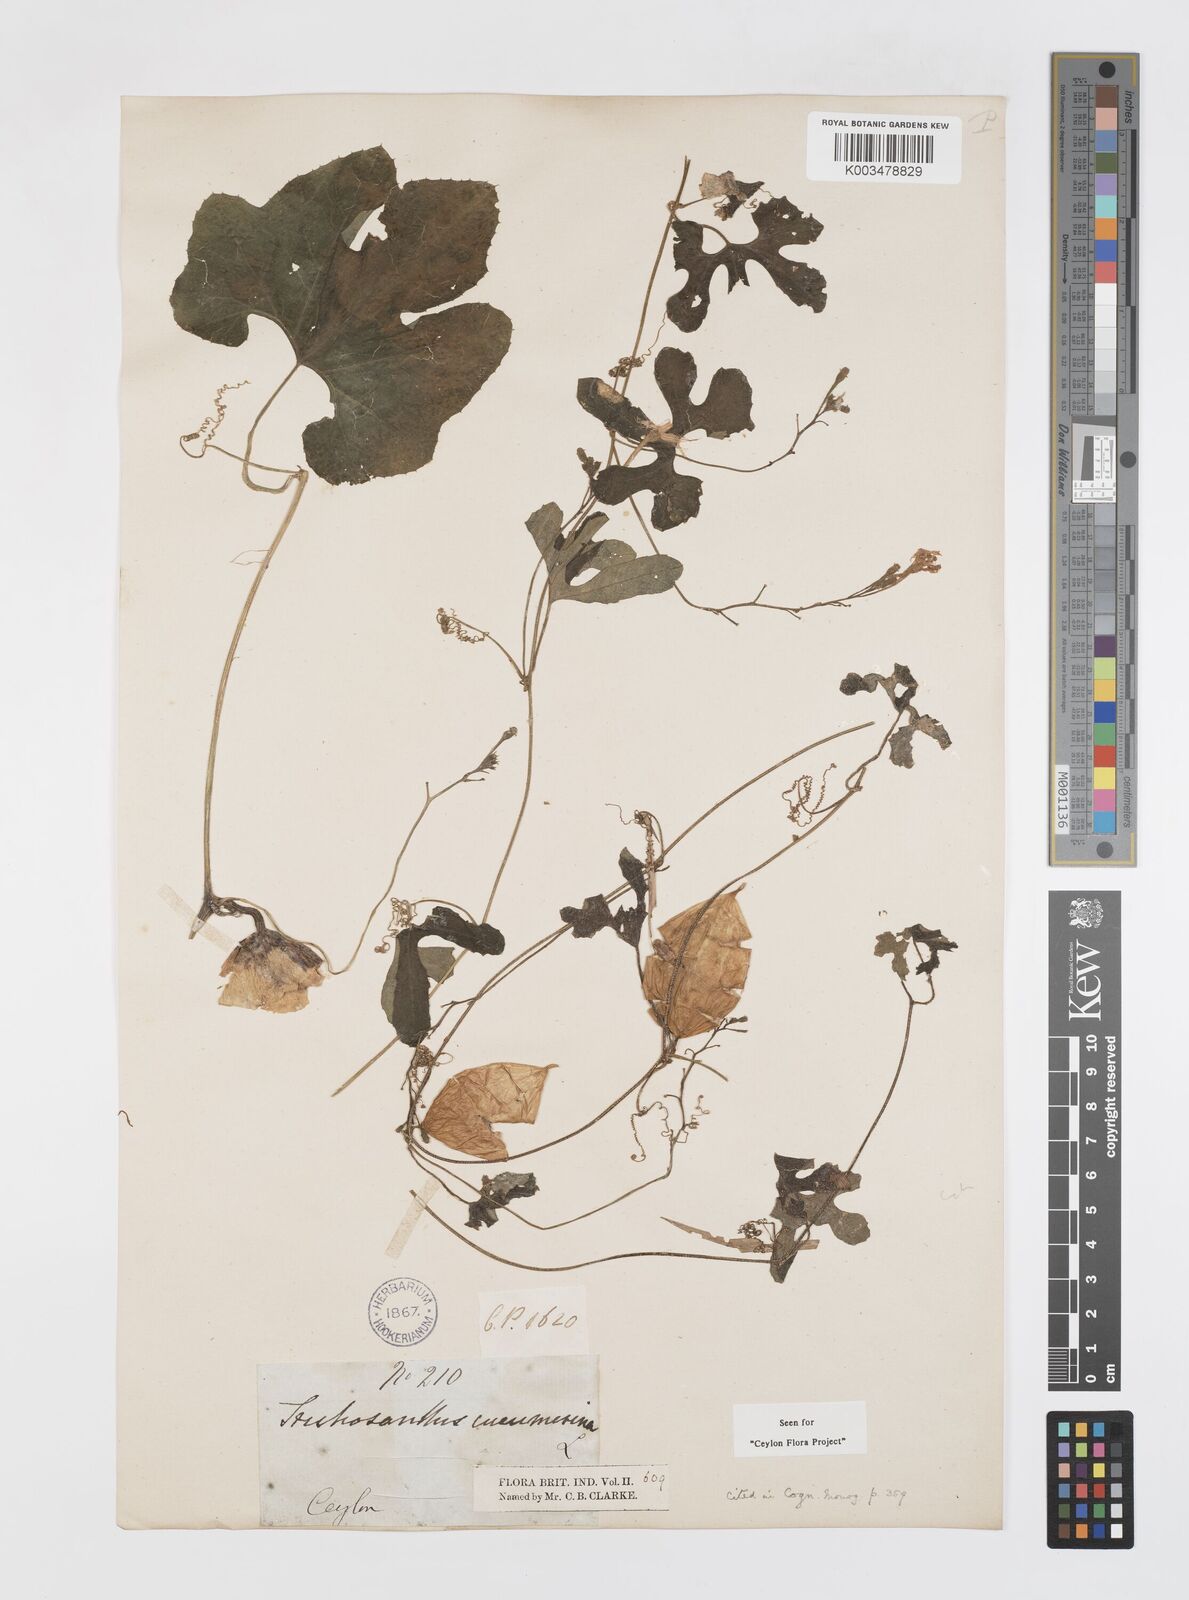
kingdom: Plantae
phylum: Tracheophyta
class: Magnoliopsida
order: Cucurbitales
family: Cucurbitaceae
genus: Trichosanthes
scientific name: Trichosanthes cucumerina
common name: Snakegourd
